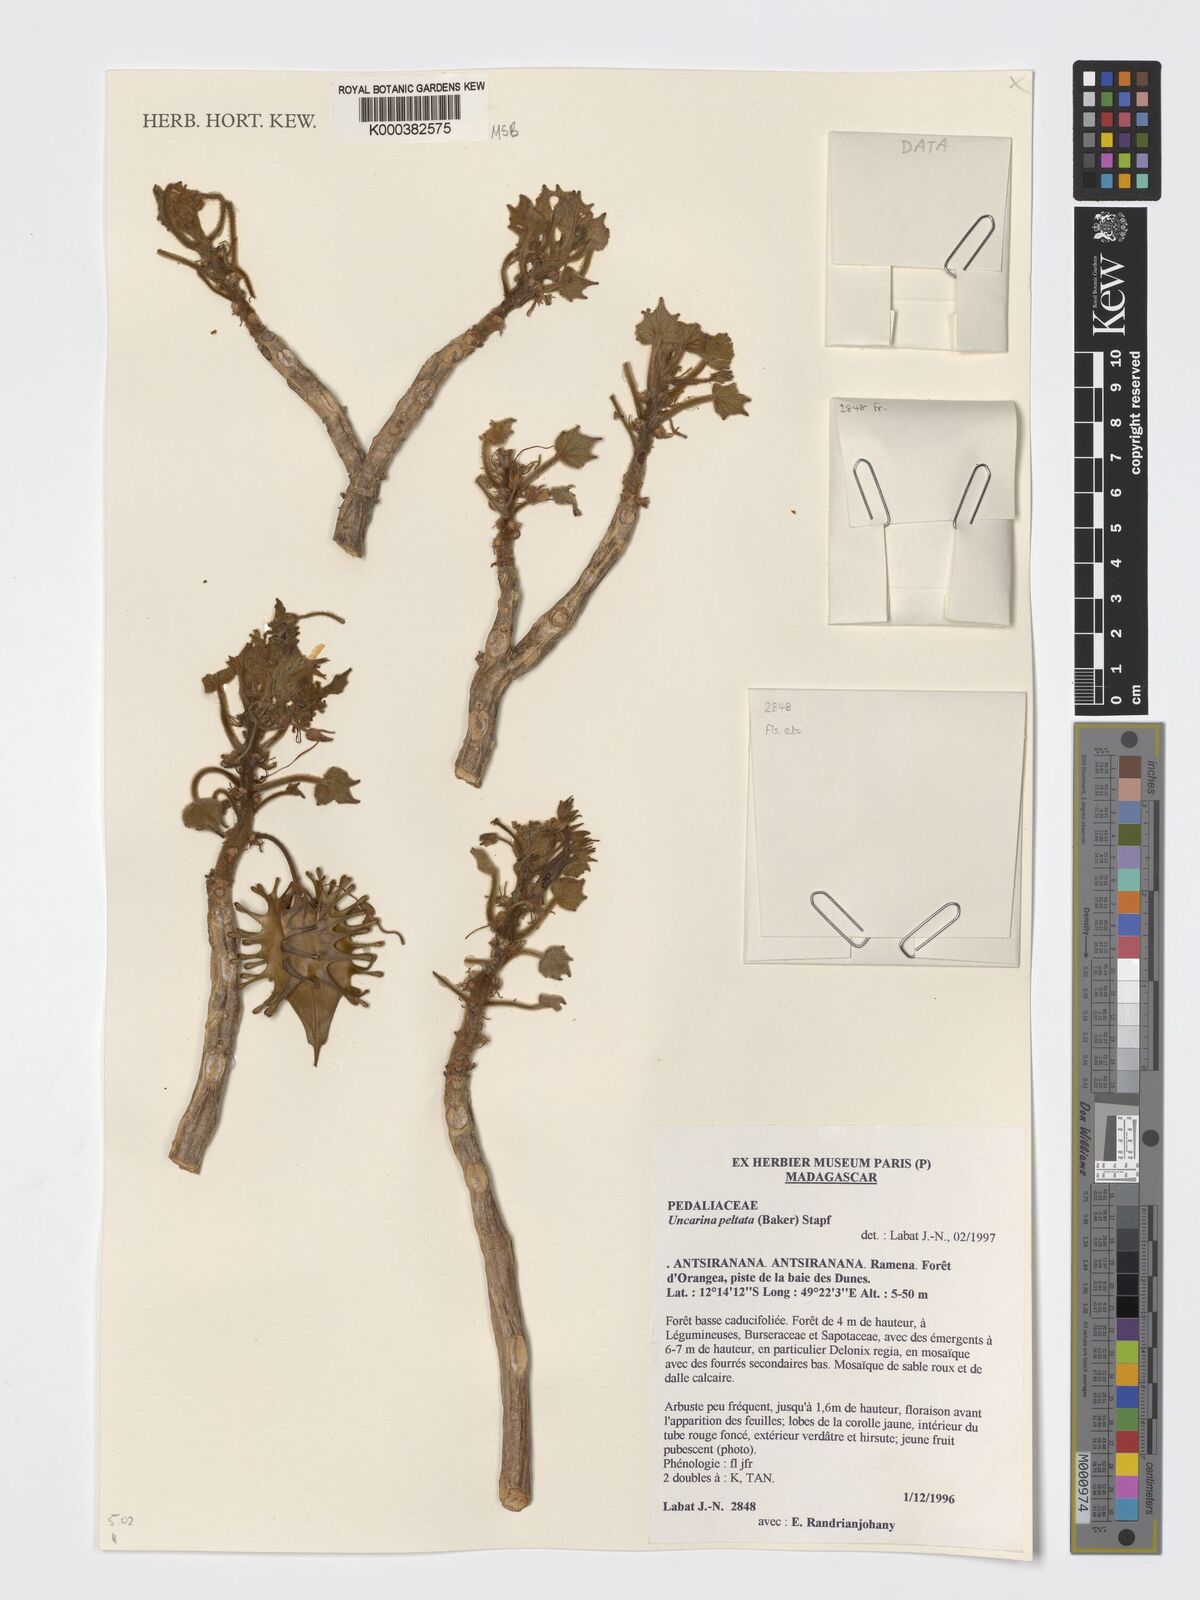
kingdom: Plantae
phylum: Tracheophyta
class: Magnoliopsida
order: Lamiales
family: Pedaliaceae
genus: Uncarina
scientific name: Uncarina peltata
